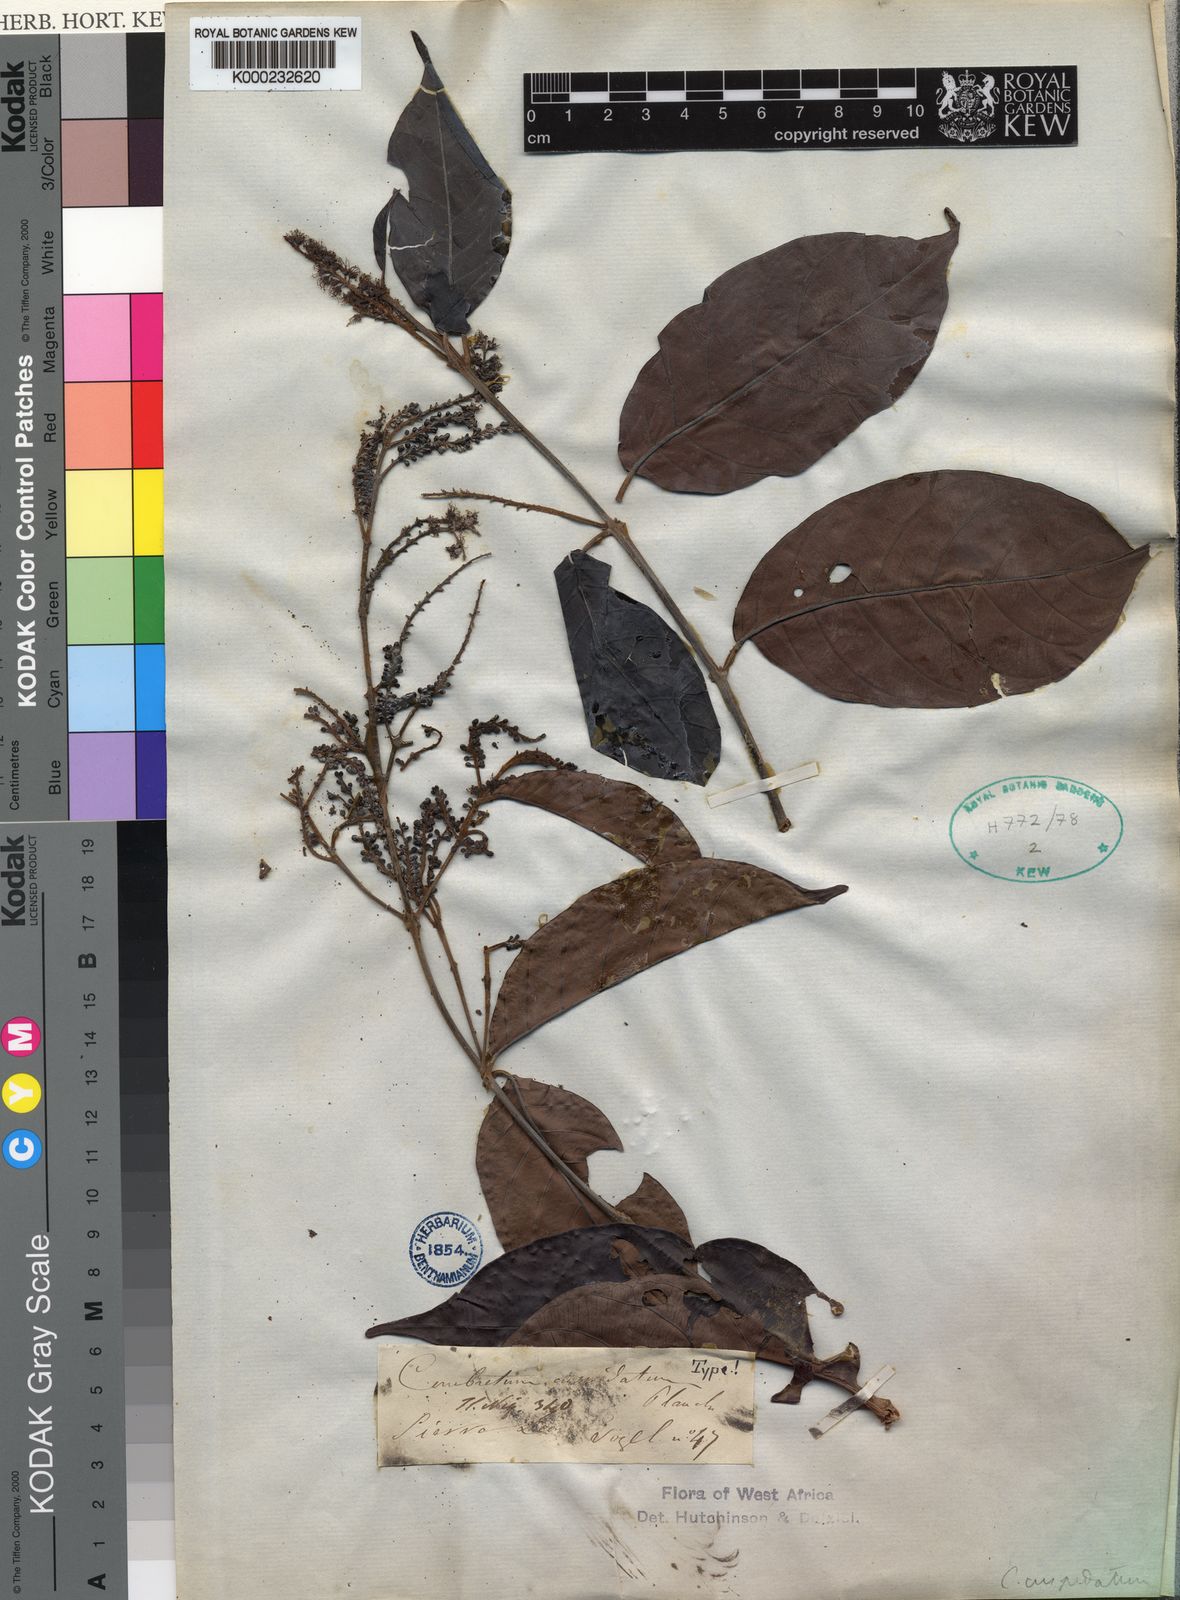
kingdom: Plantae
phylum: Tracheophyta
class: Magnoliopsida
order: Myrtales
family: Combretaceae
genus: Combretum
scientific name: Combretum cuspidatum
